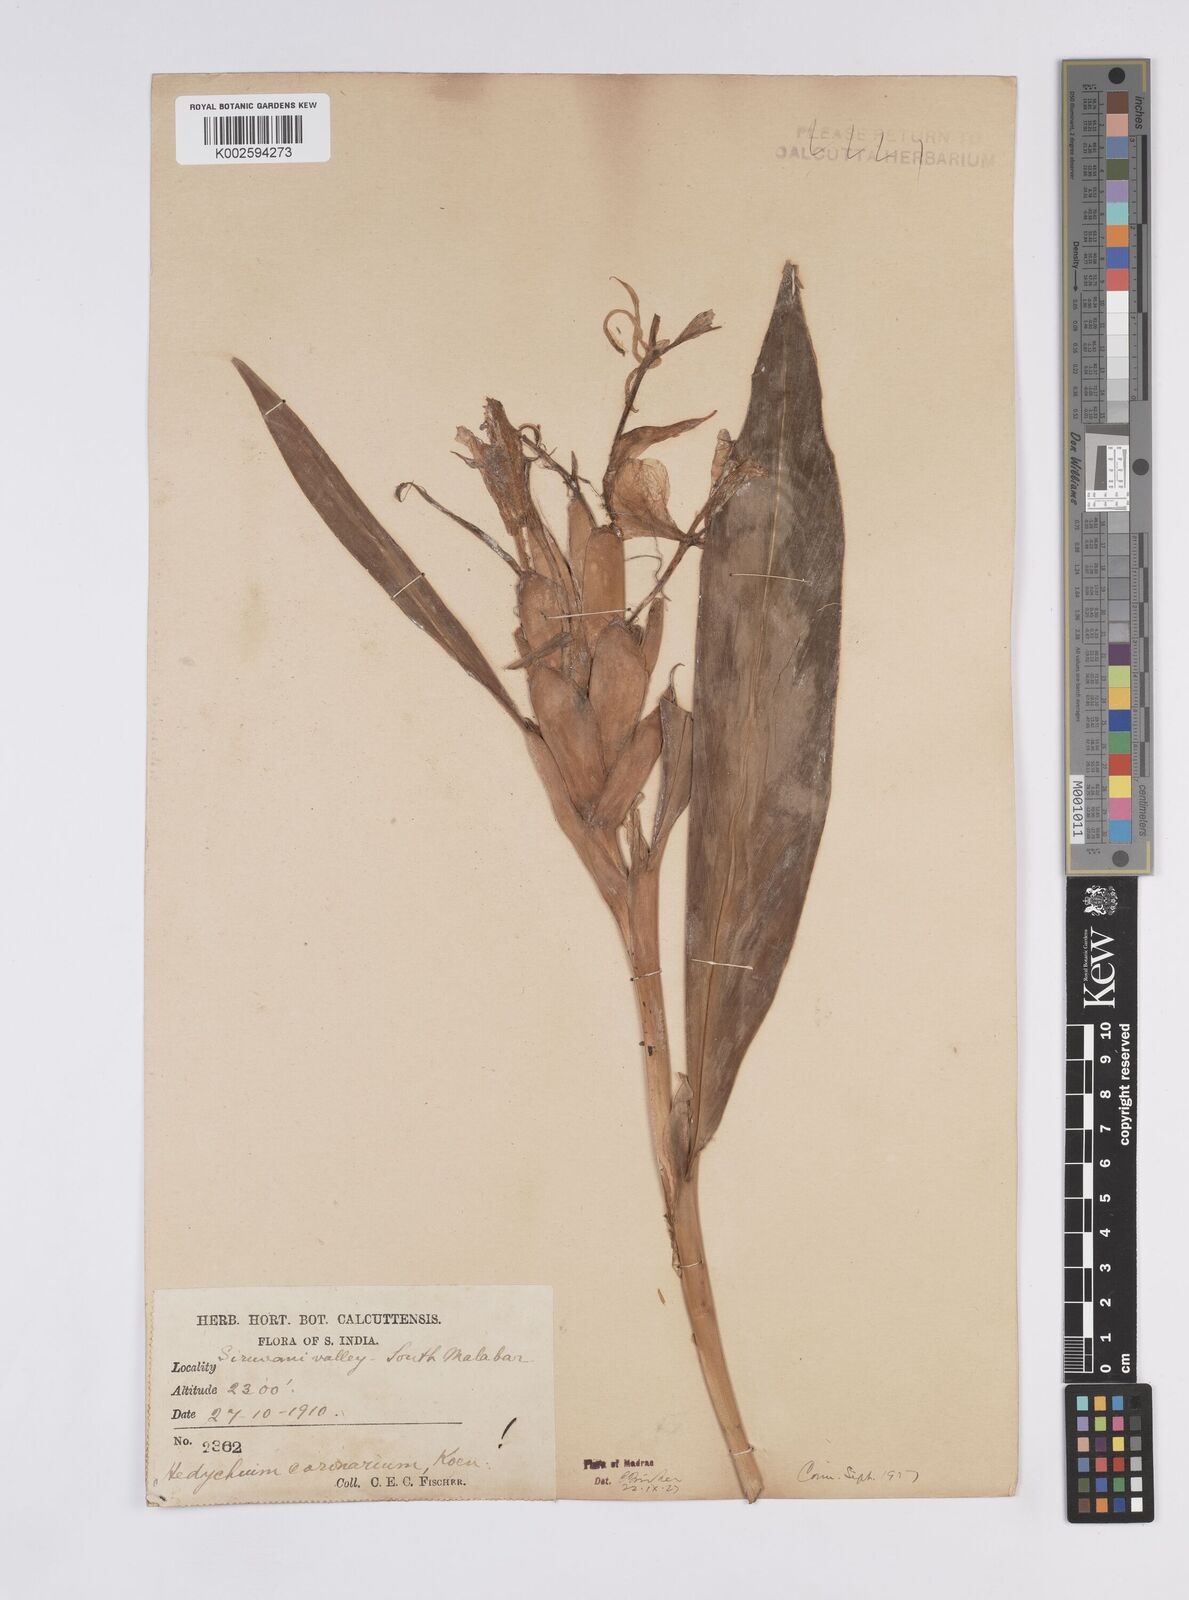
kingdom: Plantae
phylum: Tracheophyta
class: Liliopsida
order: Zingiberales
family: Zingiberaceae
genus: Hedychium
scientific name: Hedychium coronarium
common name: White garland-lily
